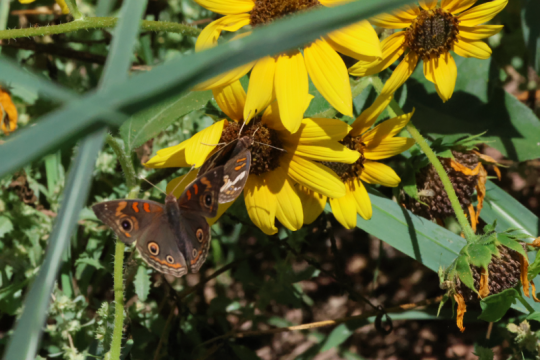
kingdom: Animalia
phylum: Arthropoda
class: Insecta
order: Lepidoptera
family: Nymphalidae
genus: Junonia
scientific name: Junonia lavinia
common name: Tropical Buckeye
